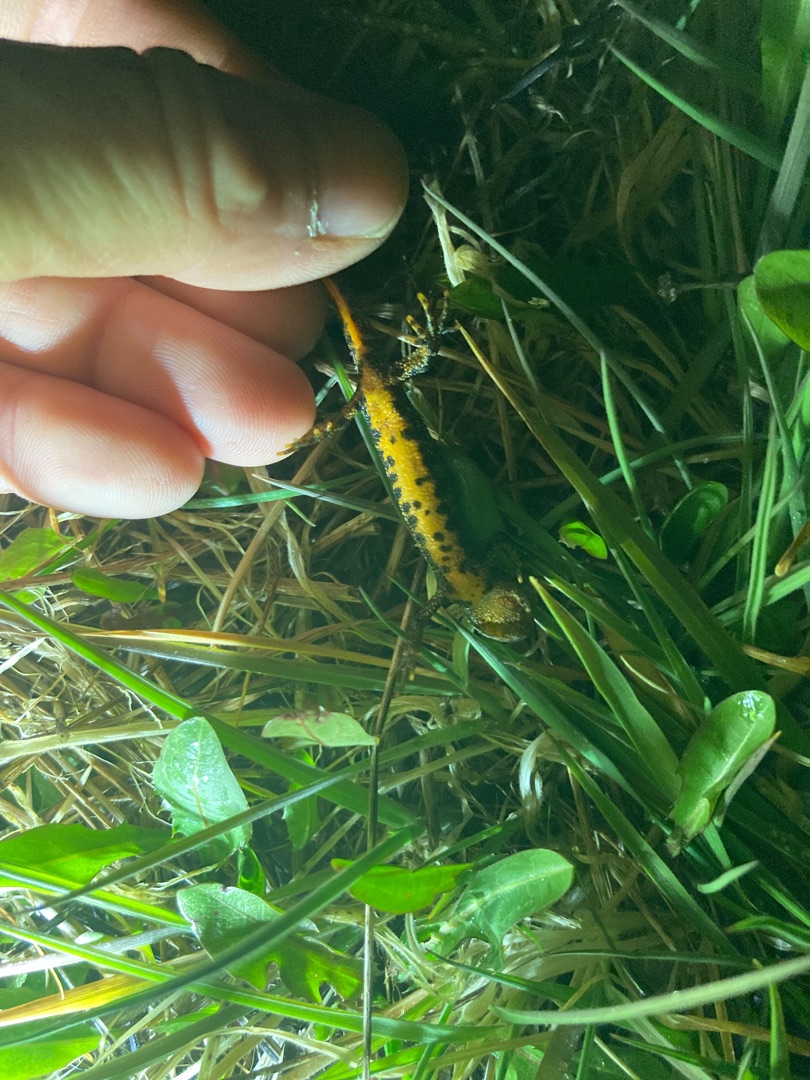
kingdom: Animalia
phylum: Chordata
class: Amphibia
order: Caudata
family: Salamandridae
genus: Triturus
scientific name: Triturus cristatus
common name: Stor vandsalamander
